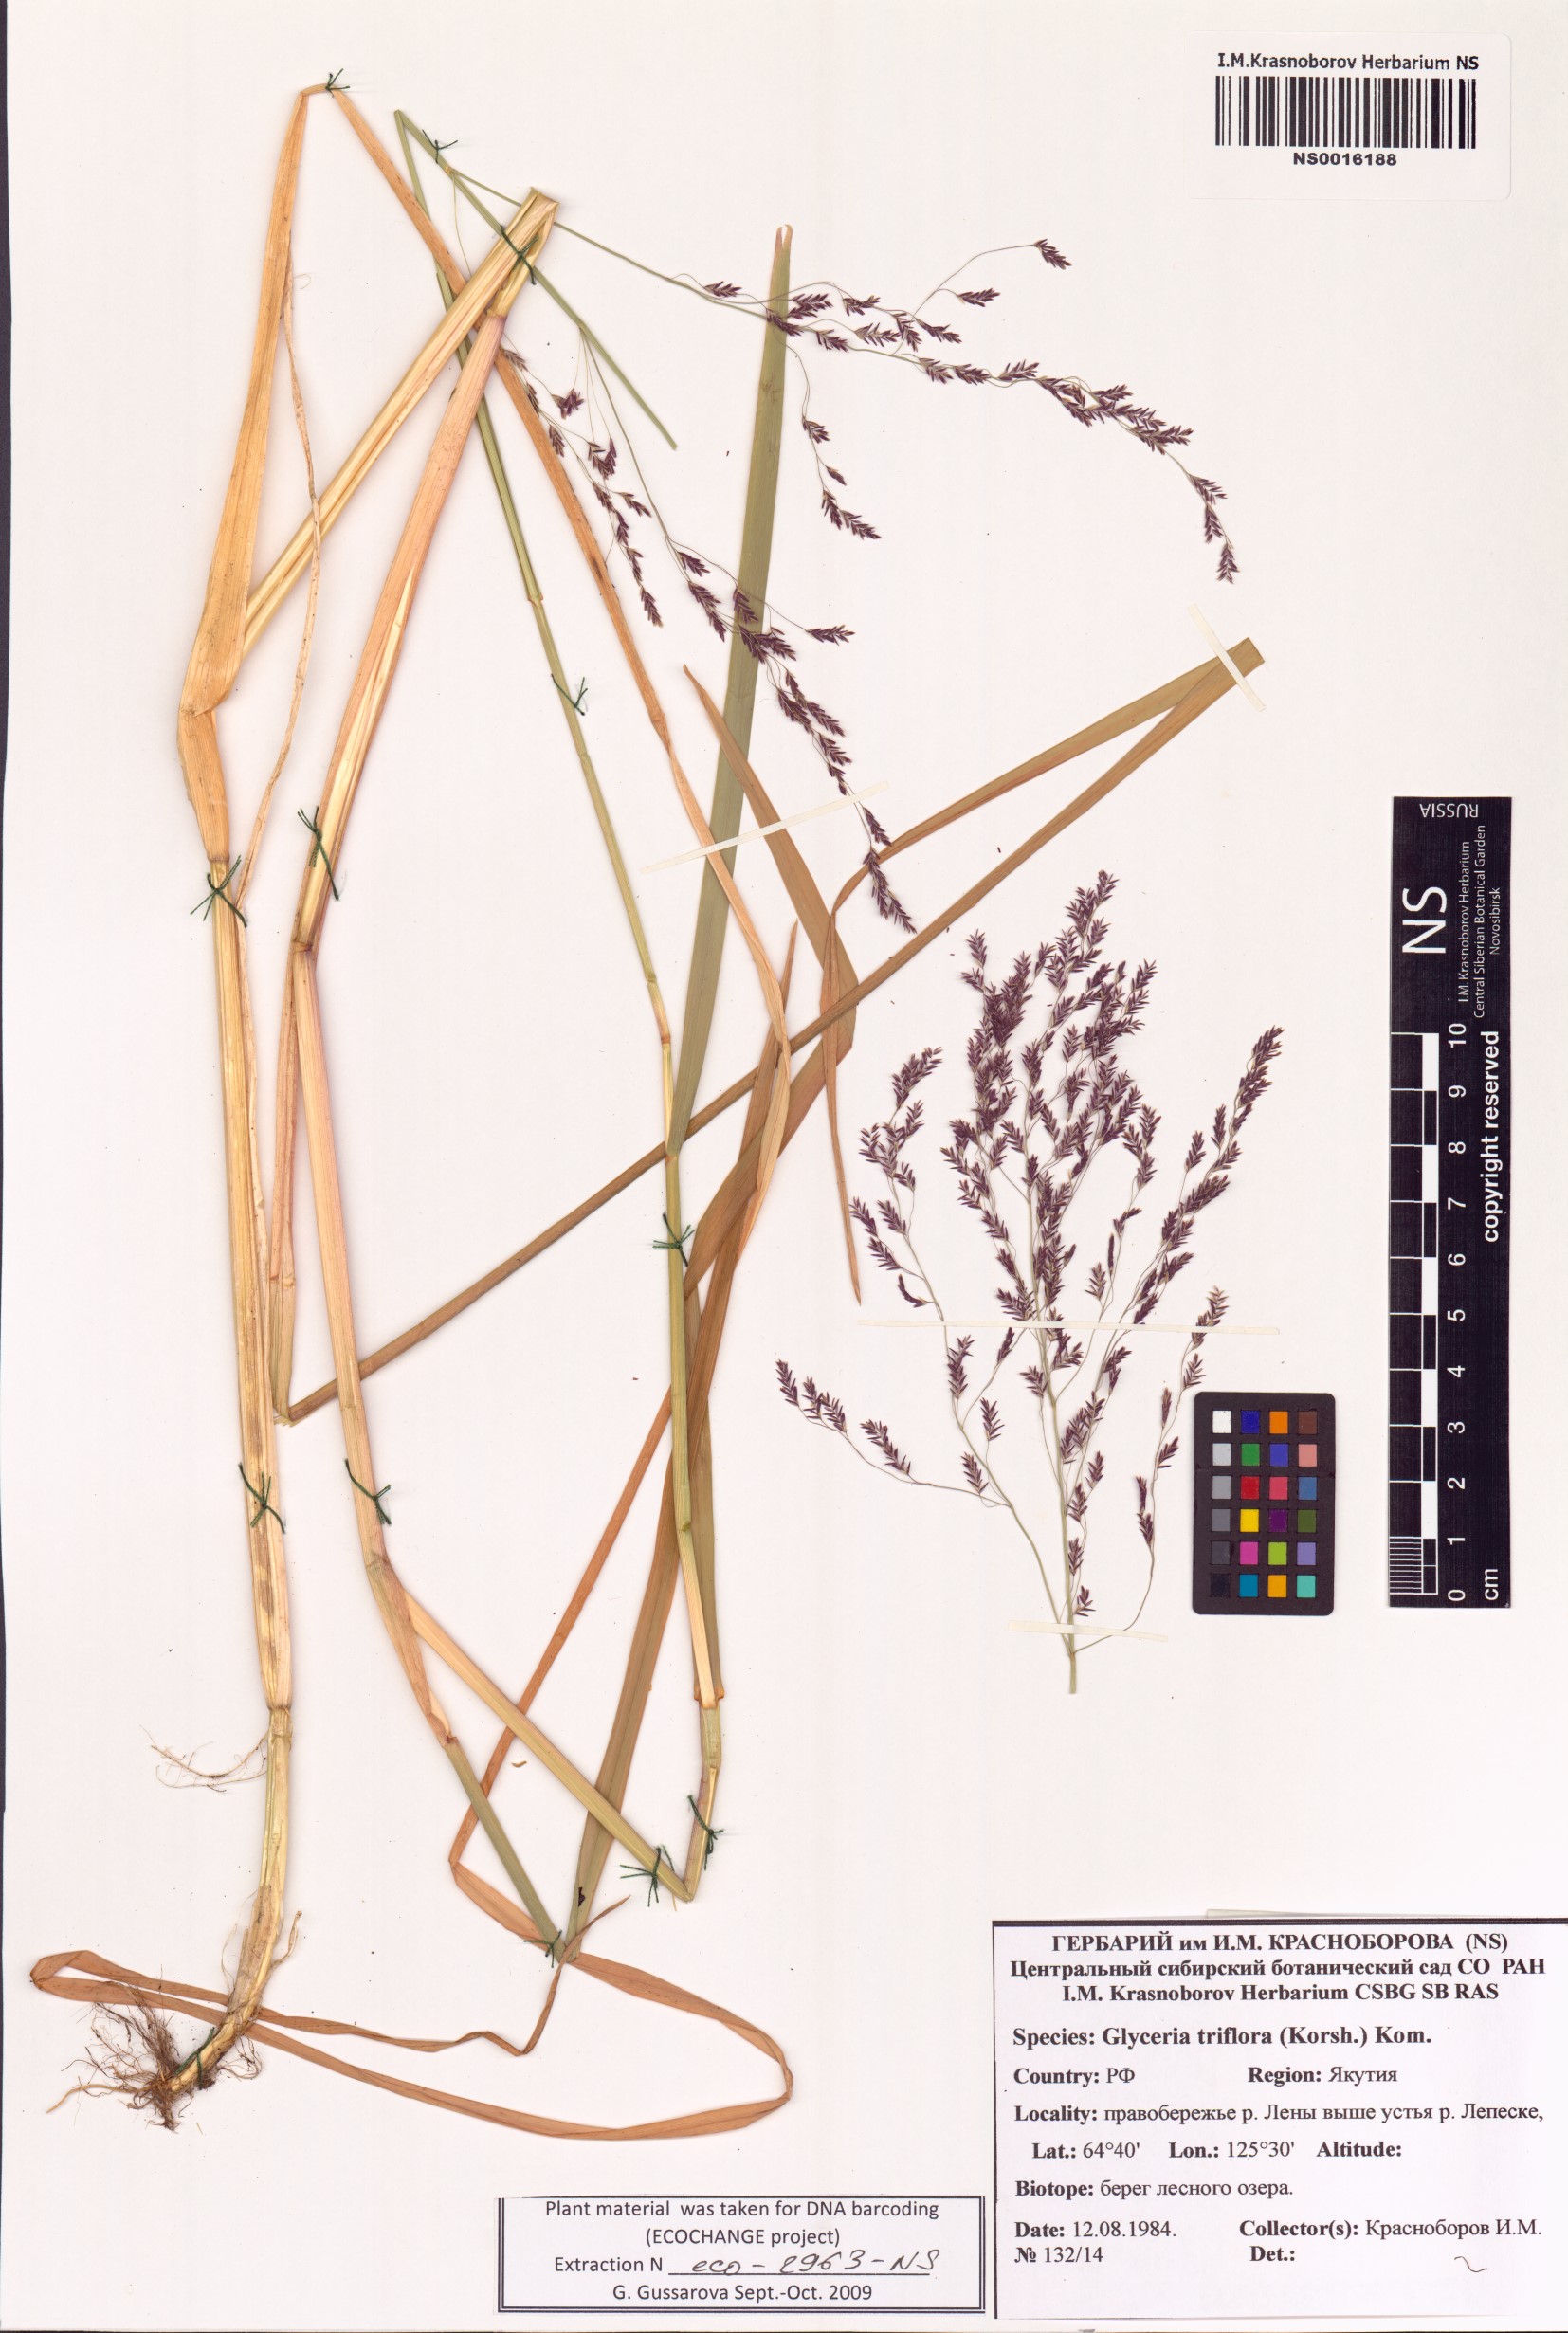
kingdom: Plantae
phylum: Tracheophyta
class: Liliopsida
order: Poales
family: Poaceae
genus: Glyceria
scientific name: Glyceria lithuanica
